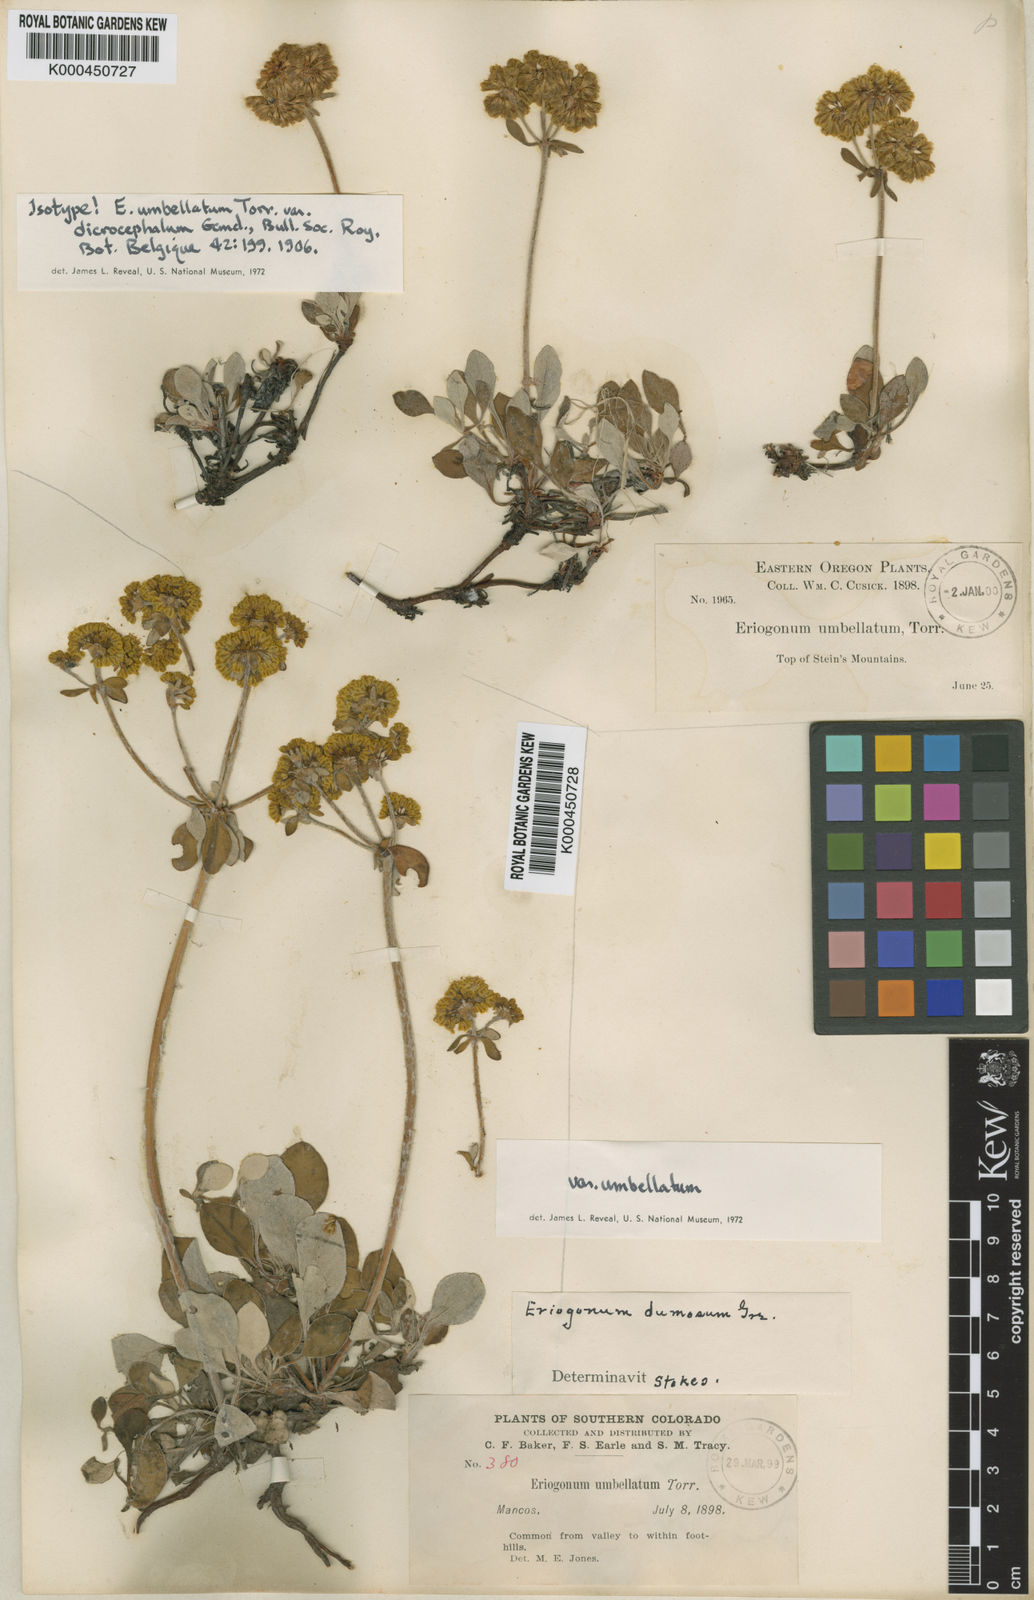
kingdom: Plantae
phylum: Tracheophyta
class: Magnoliopsida
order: Caryophyllales
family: Polygonaceae
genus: Eriogonum
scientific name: Eriogonum umbellatum
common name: Sulfur-buckwheat
